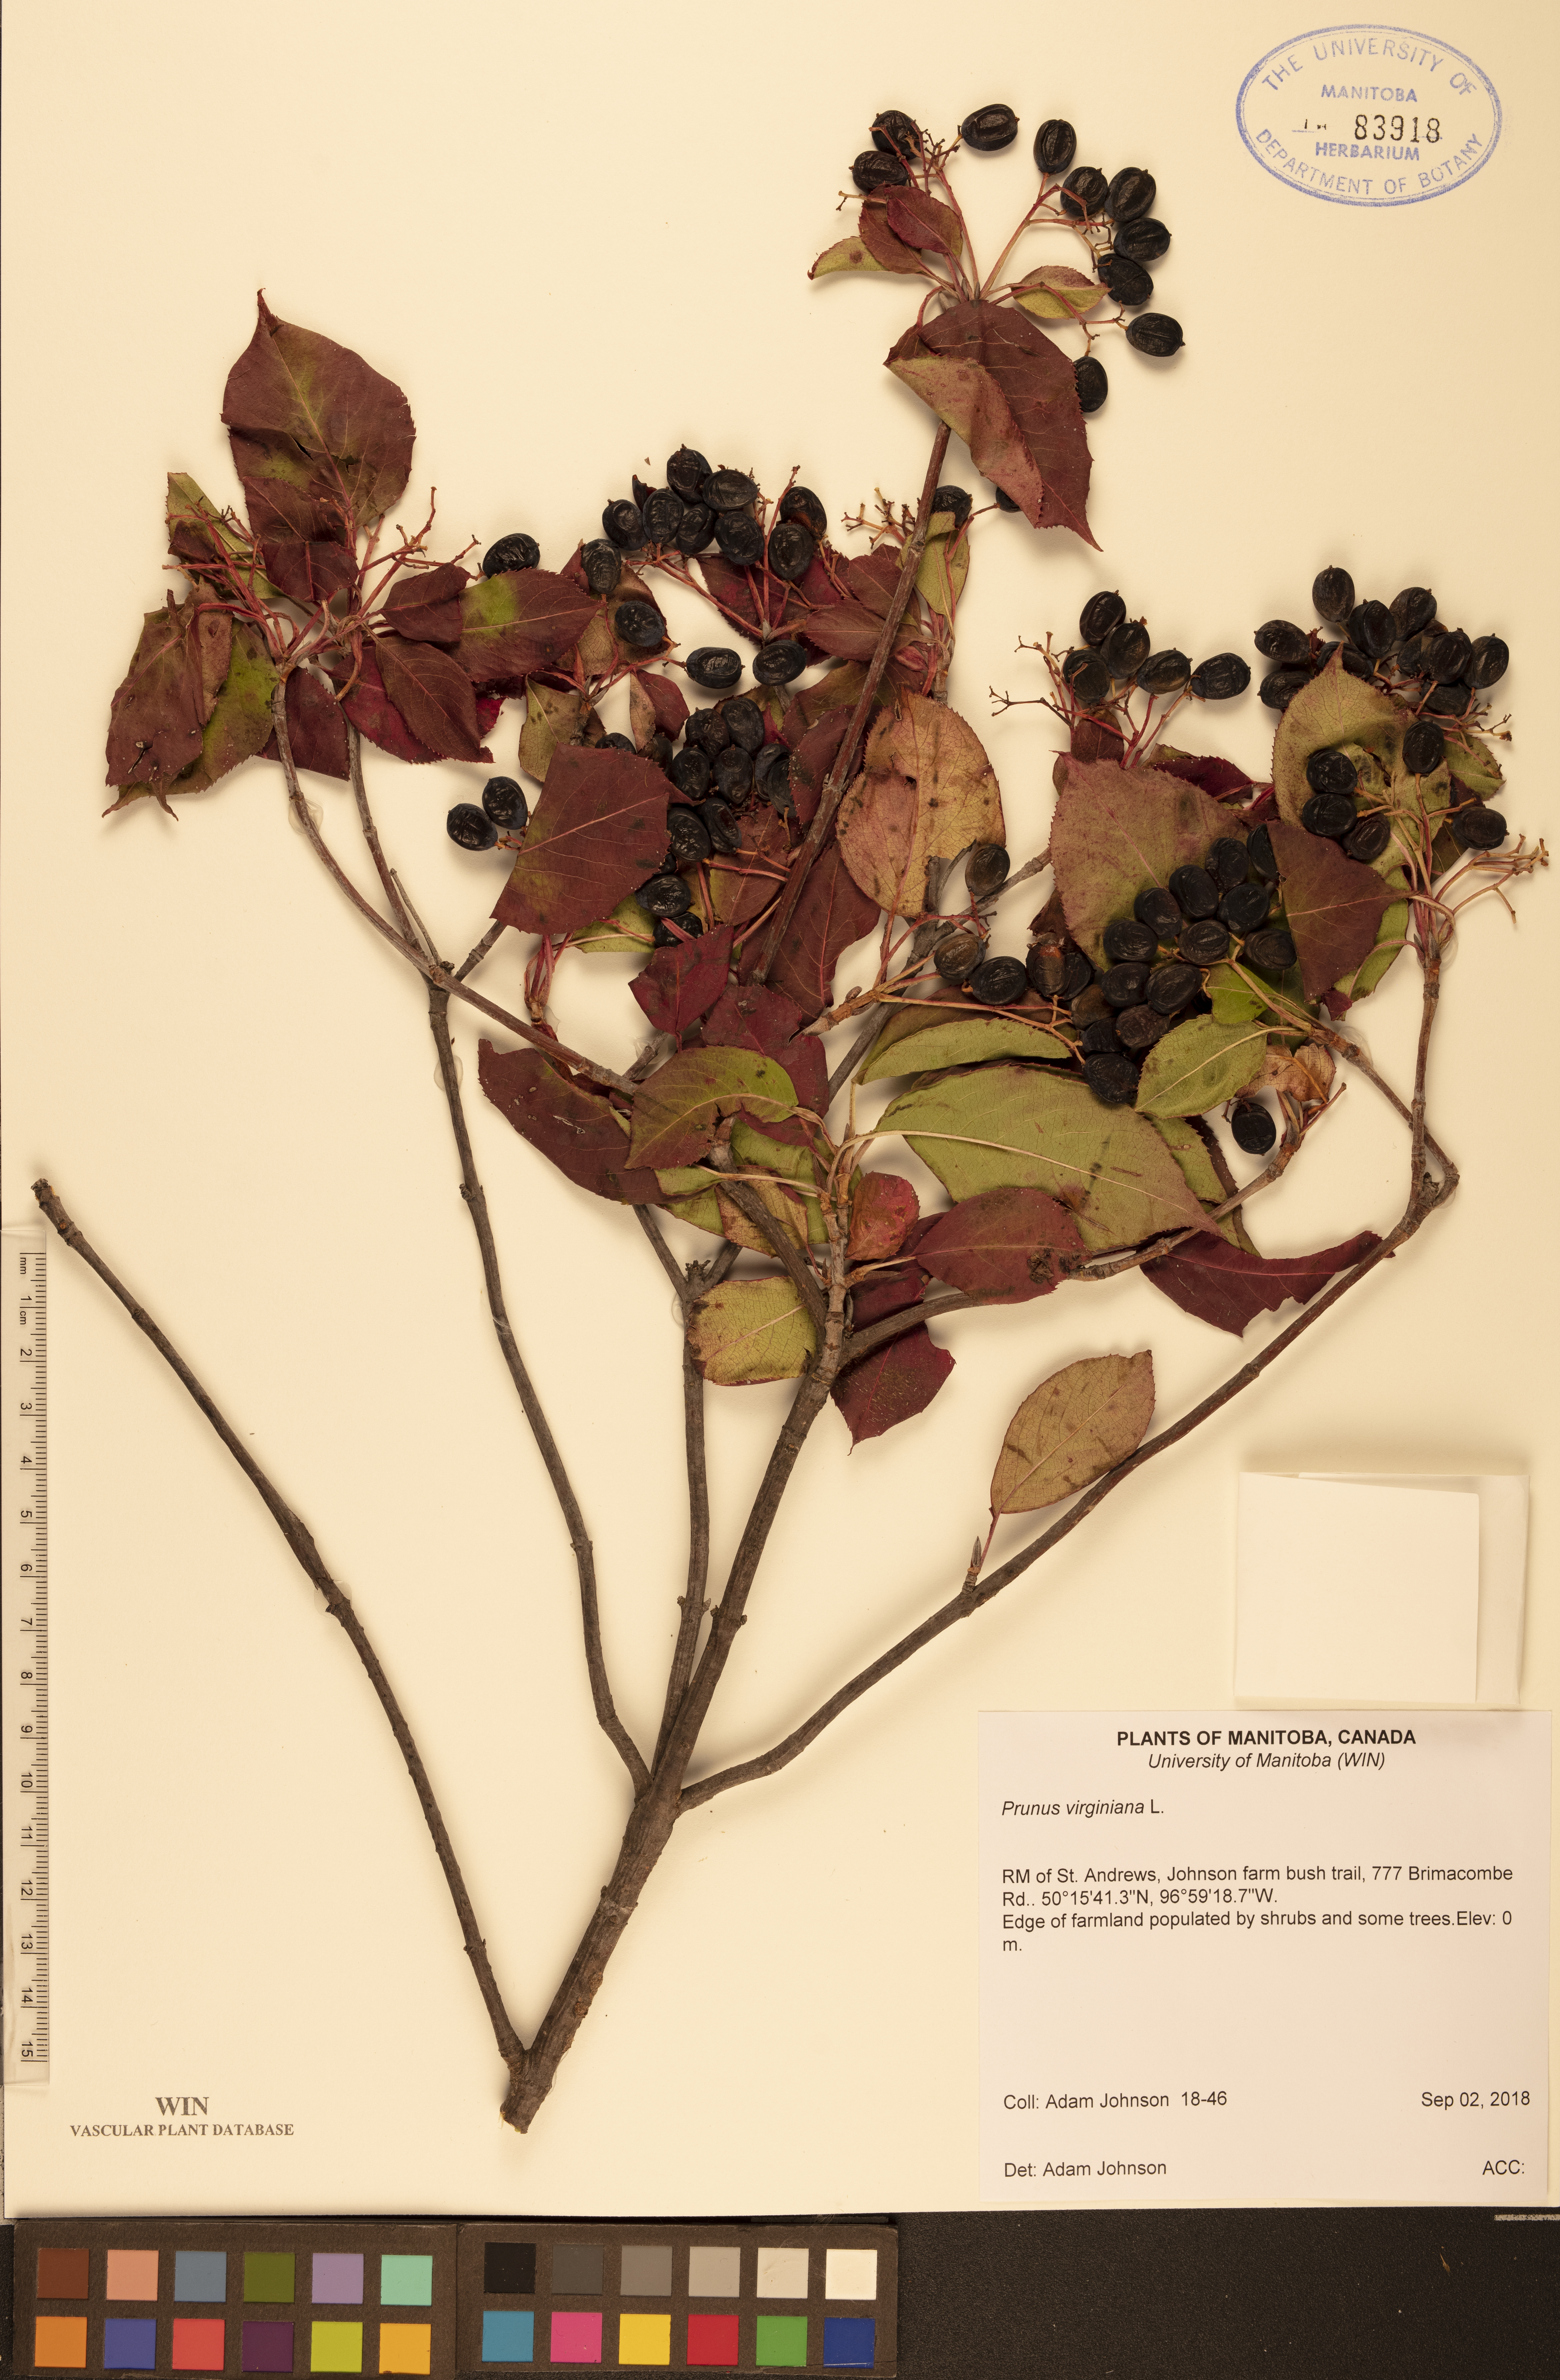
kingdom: Plantae
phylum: Tracheophyta
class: Magnoliopsida
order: Rosales
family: Rosaceae
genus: Prunus
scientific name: Prunus virginiana
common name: Chokecherry
